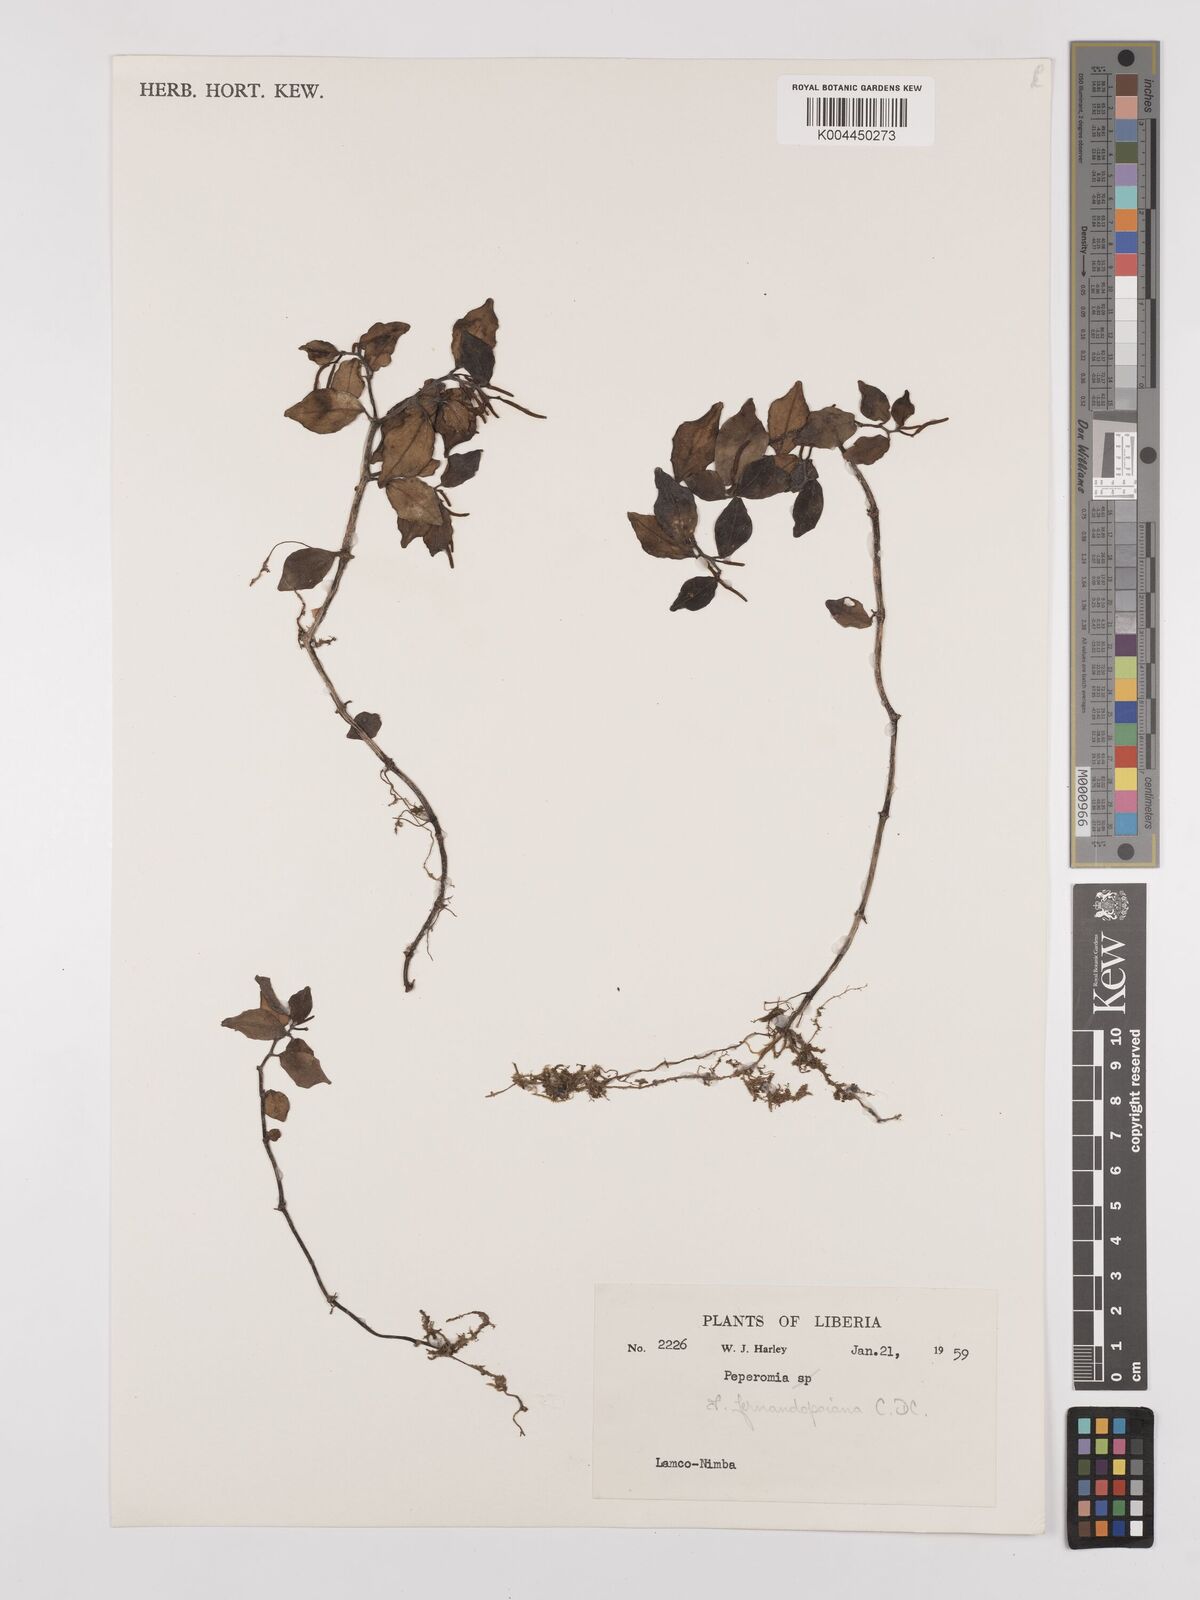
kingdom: Plantae
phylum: Tracheophyta
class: Magnoliopsida
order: Piperales
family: Piperaceae
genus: Peperomia
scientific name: Peperomia fernandeziana
